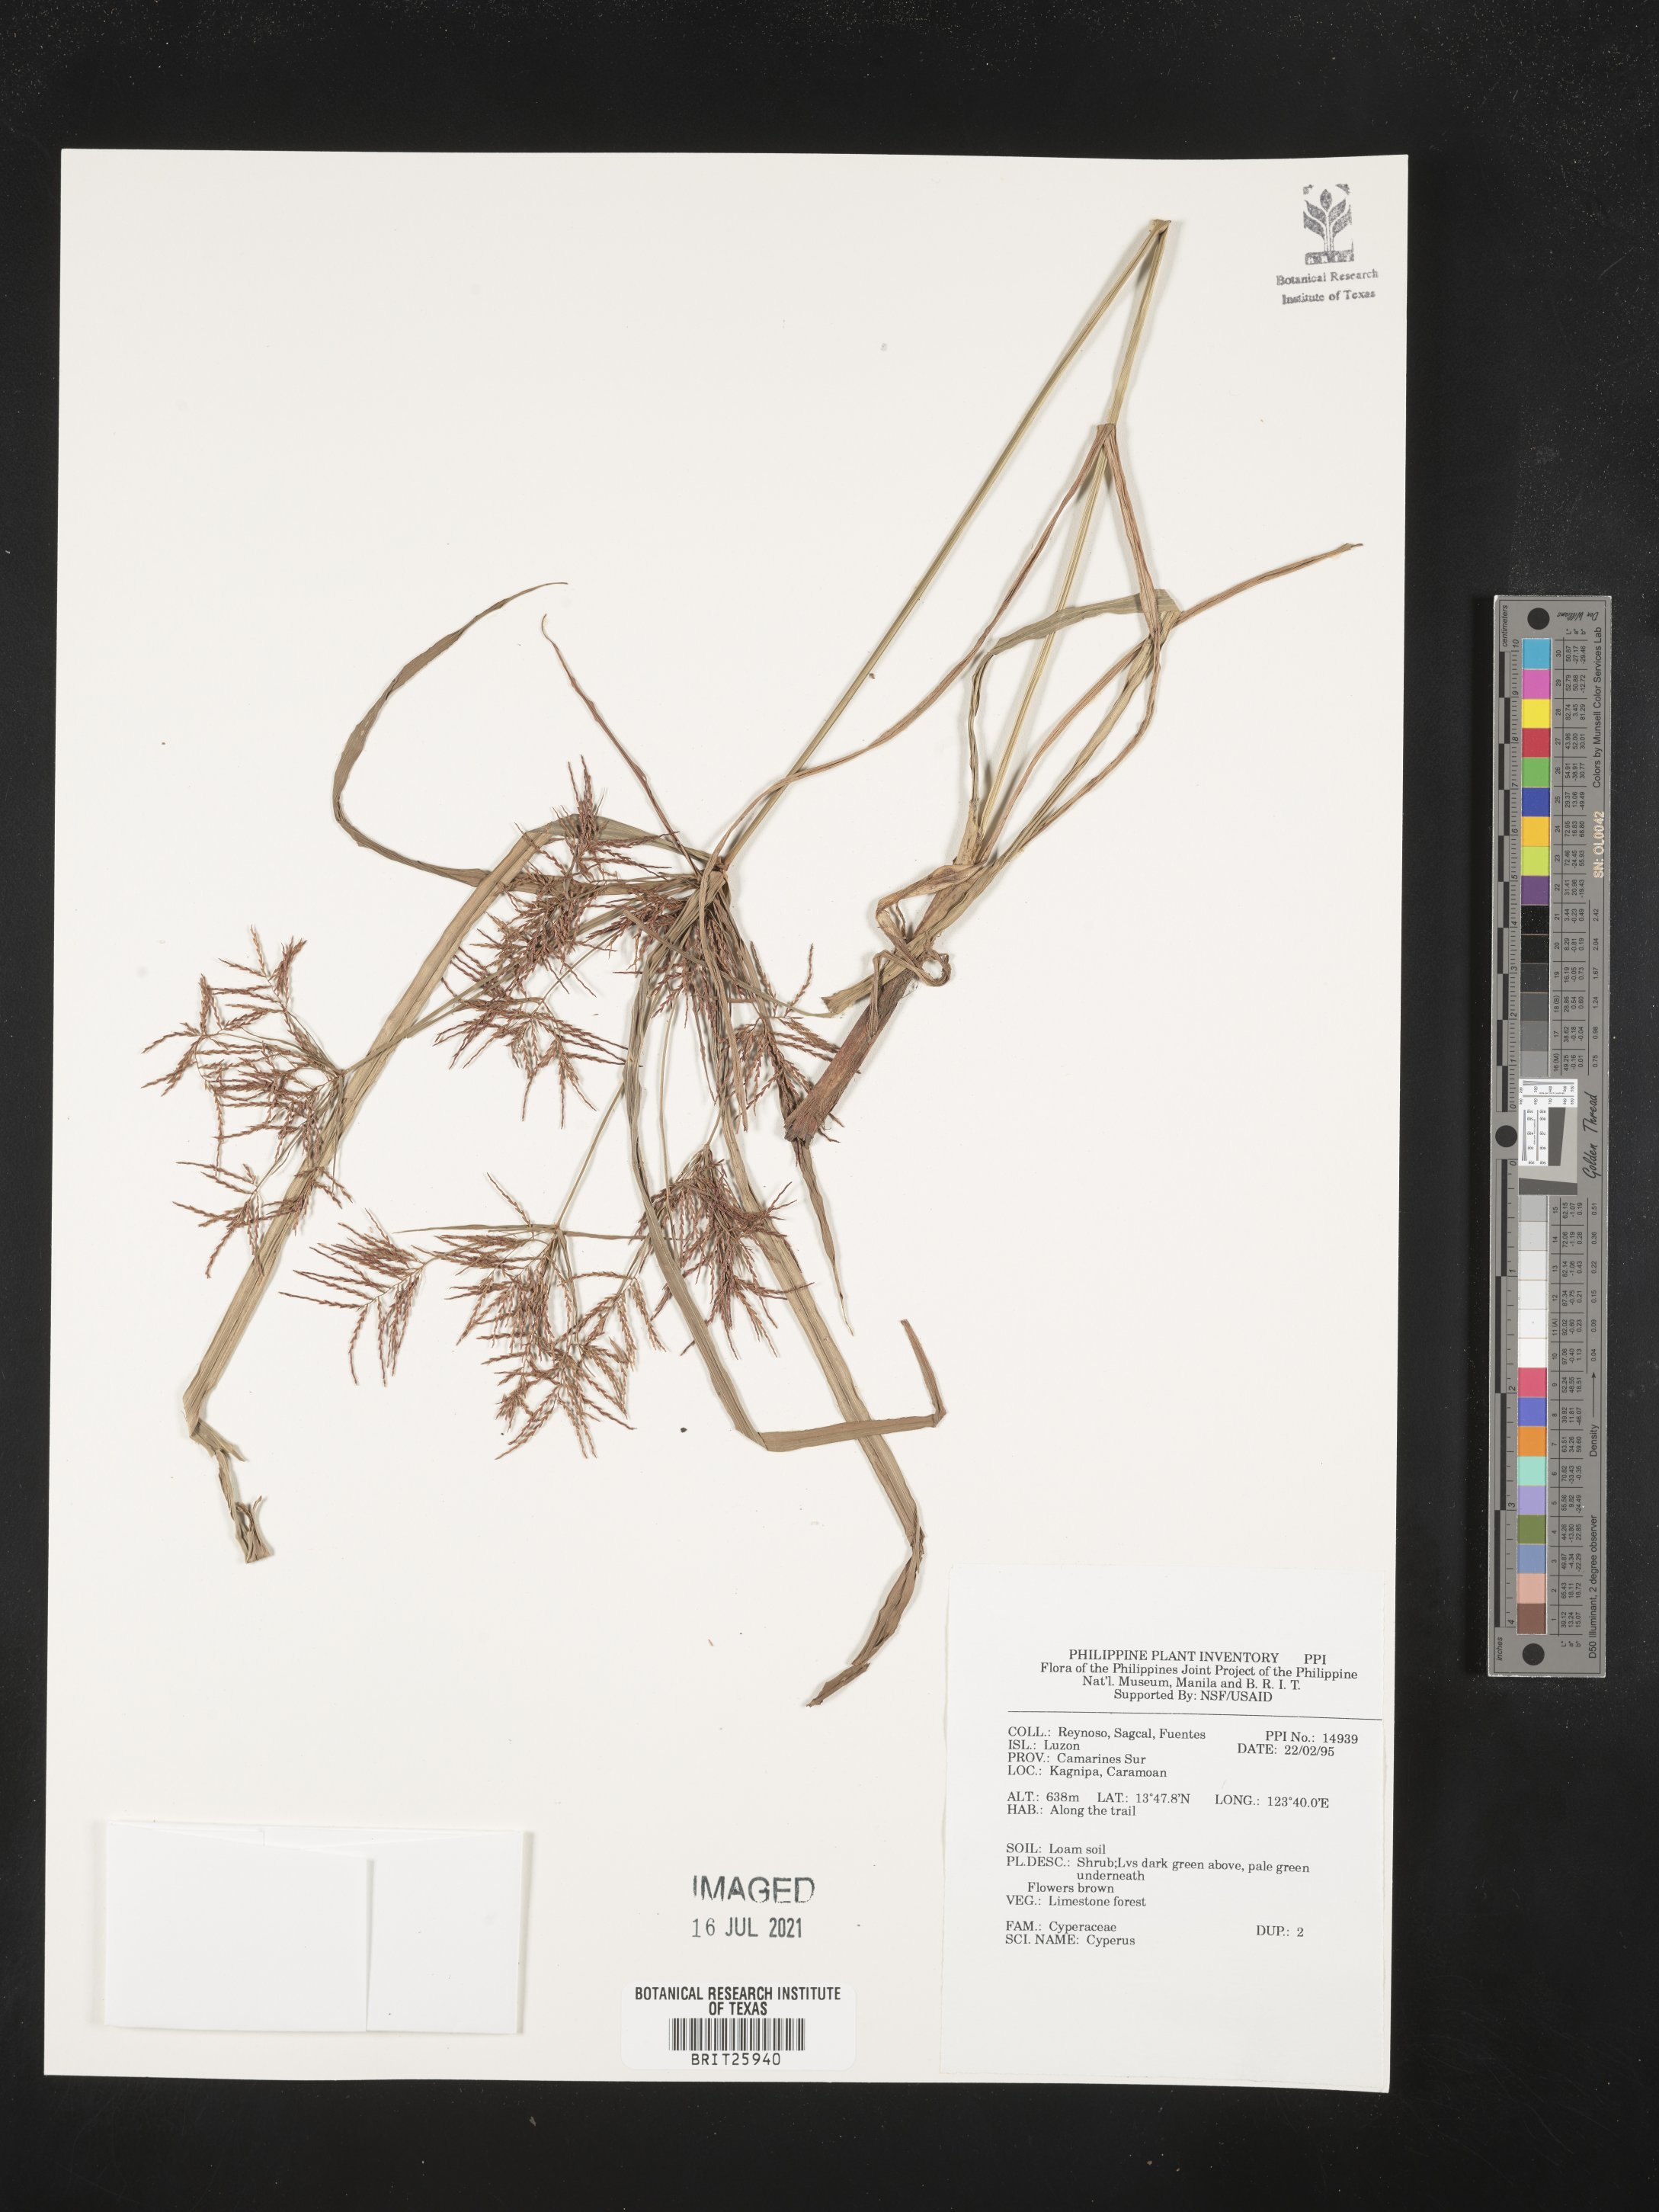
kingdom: Plantae
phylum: Tracheophyta
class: Liliopsida
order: Poales
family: Cyperaceae
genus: Cyperus
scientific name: Cyperus
